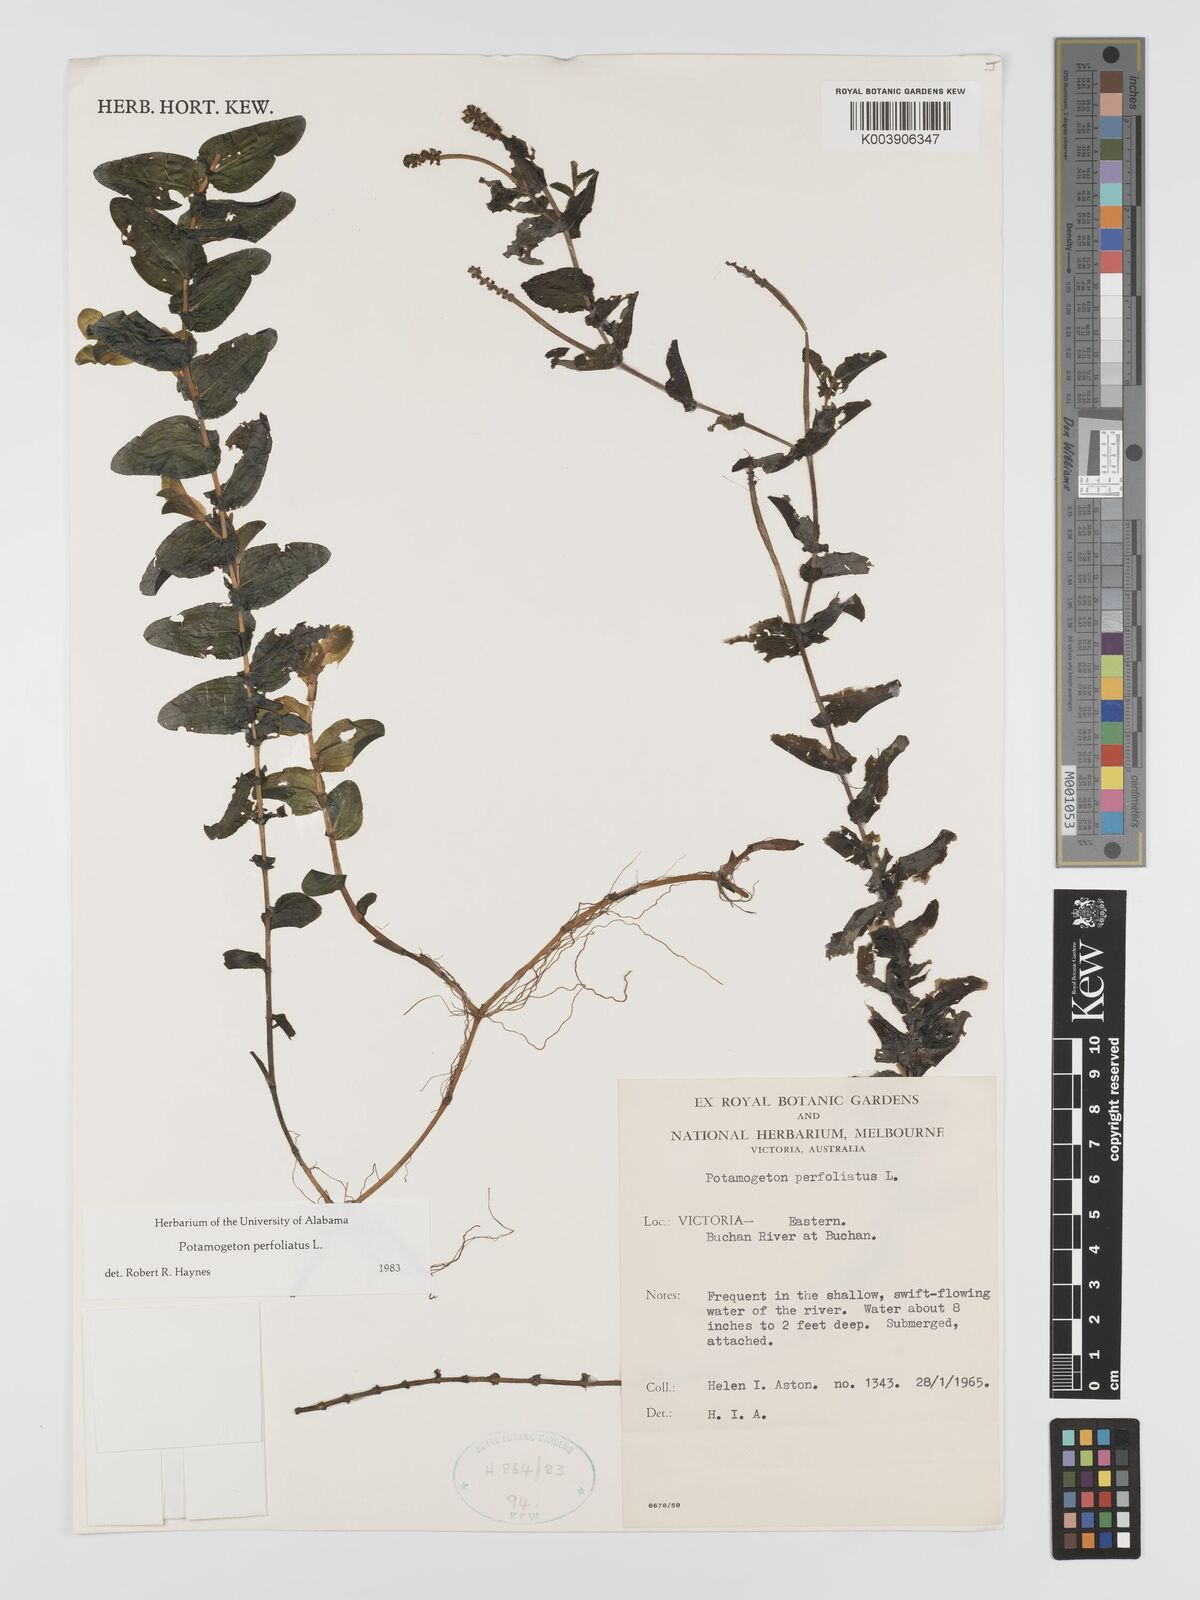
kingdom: Plantae
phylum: Tracheophyta
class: Liliopsida
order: Alismatales
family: Potamogetonaceae
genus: Potamogeton
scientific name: Potamogeton perfoliatus
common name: Perfoliate pondweed
